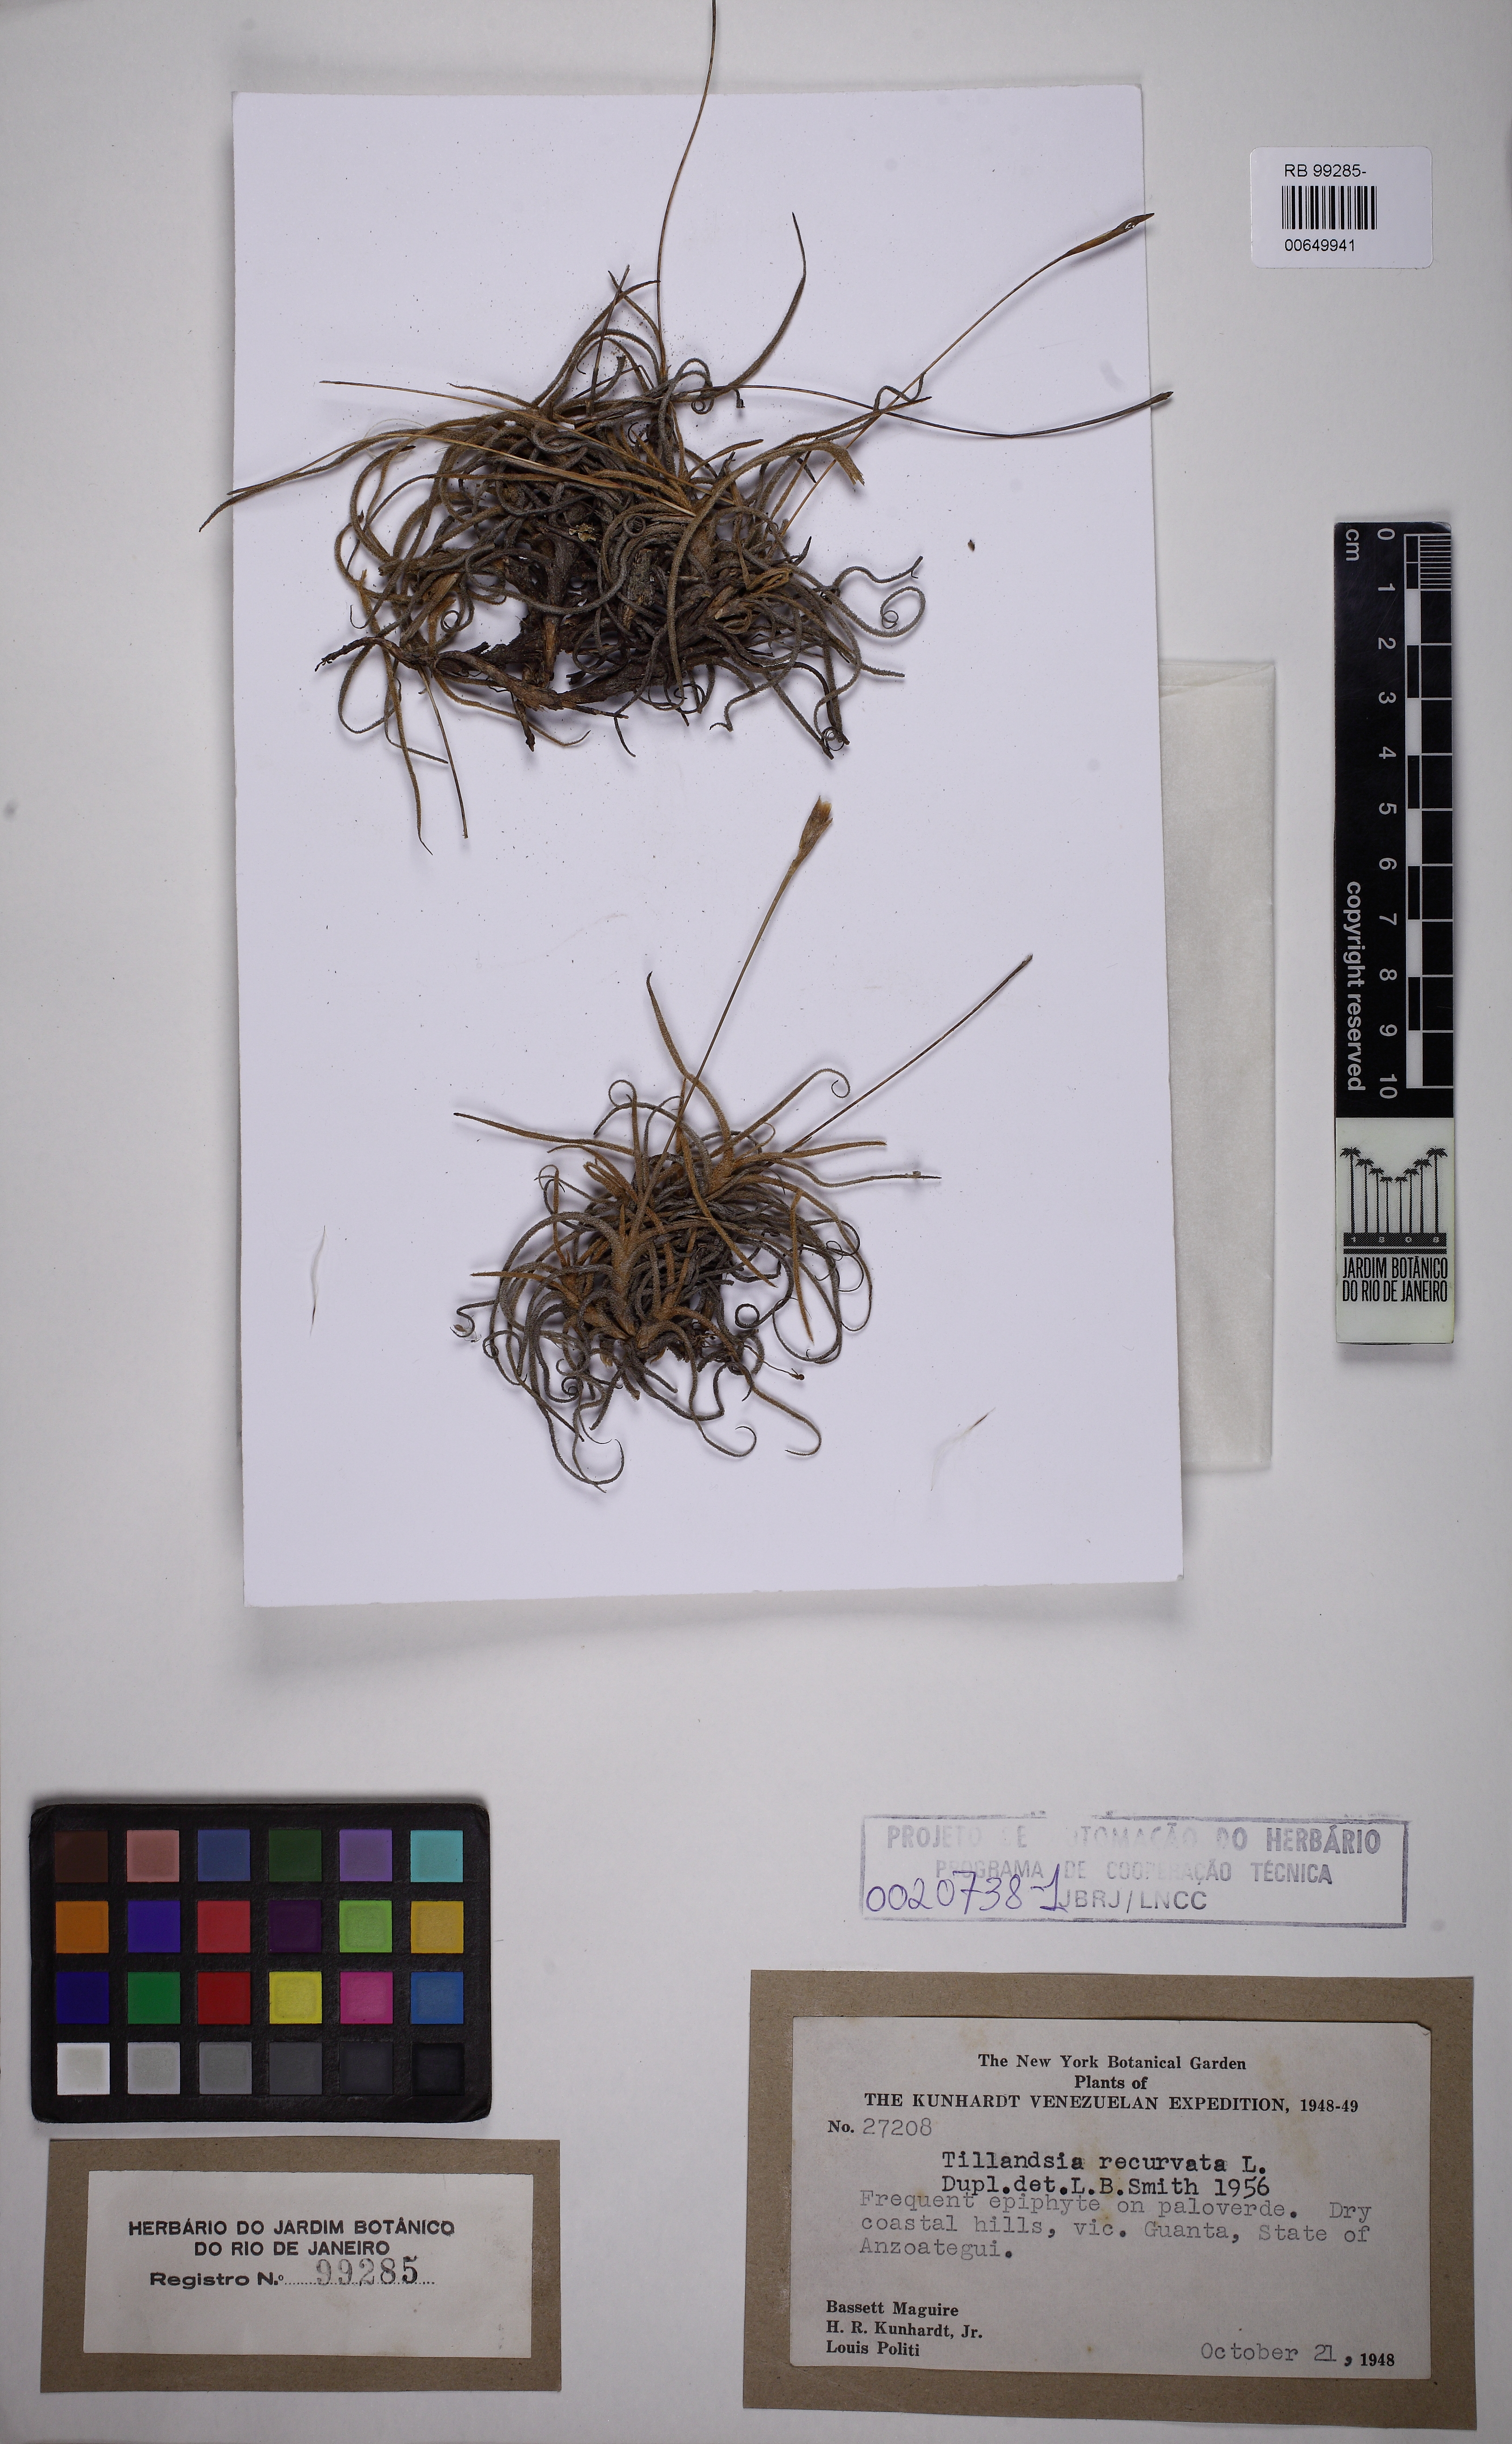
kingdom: Plantae
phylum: Tracheophyta
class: Liliopsida
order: Poales
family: Bromeliaceae
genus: Tillandsia
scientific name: Tillandsia recurvata
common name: Small ballmoss
